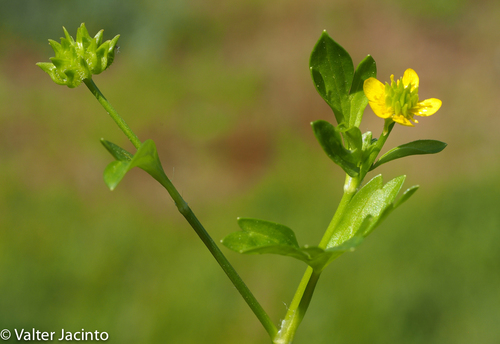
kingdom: Plantae
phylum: Tracheophyta
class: Magnoliopsida
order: Ranunculales
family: Ranunculaceae
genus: Ranunculus
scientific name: Ranunculus muricatus
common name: Rough-fruited buttercup
